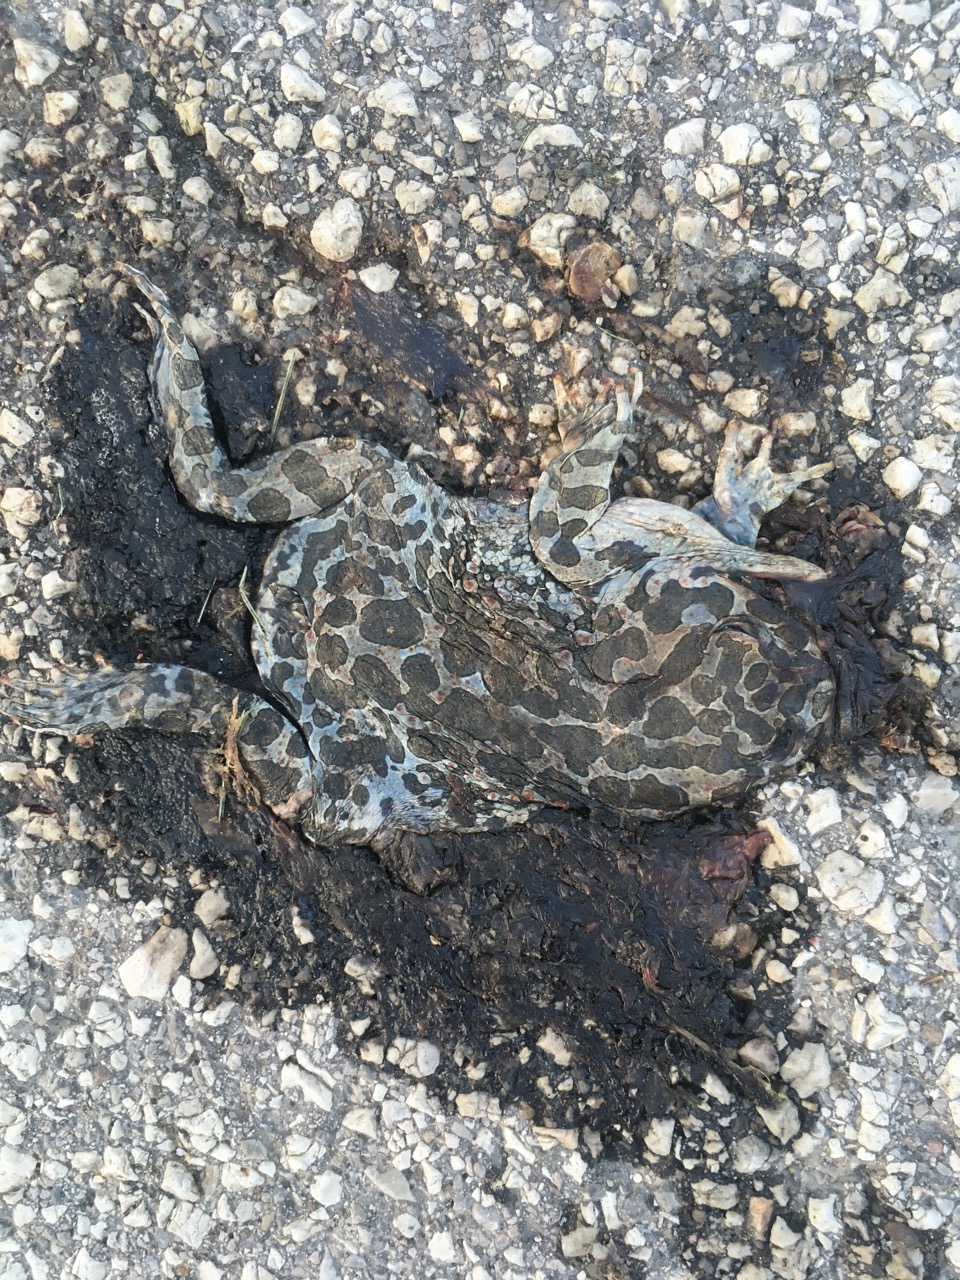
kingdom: Animalia
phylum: Chordata
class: Amphibia
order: Anura
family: Bufonidae
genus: Bufotes
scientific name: Bufotes viridis
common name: European green toad
